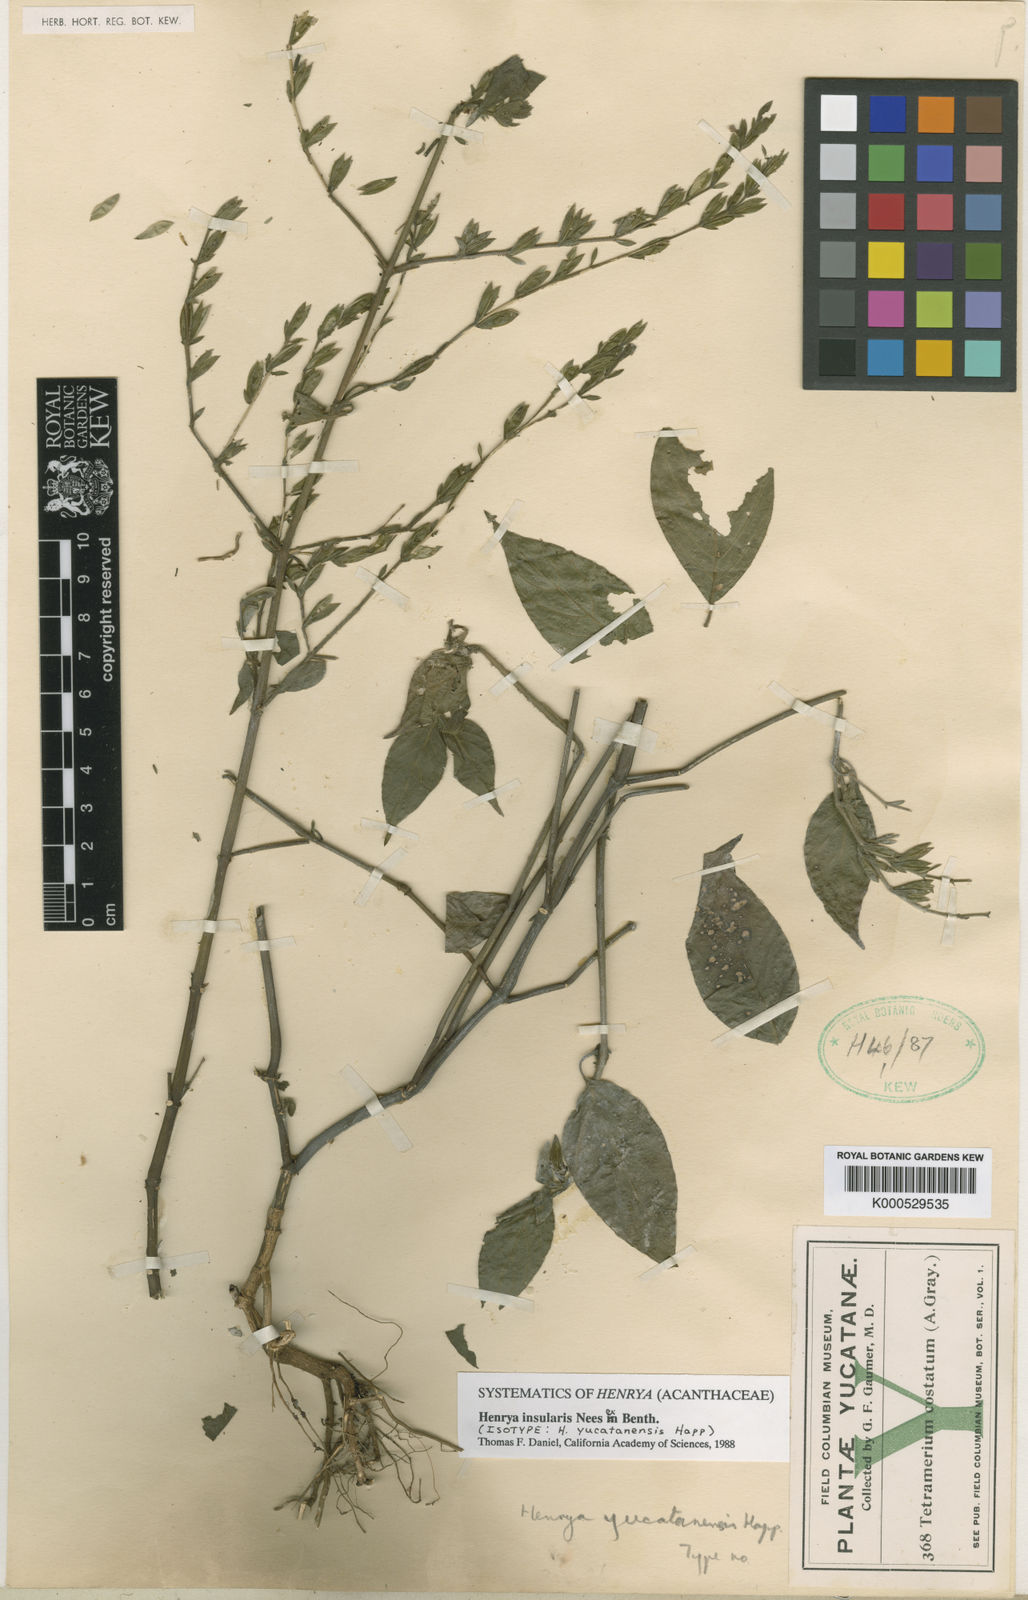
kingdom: Plantae
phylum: Tracheophyta
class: Magnoliopsida
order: Lamiales
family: Acanthaceae
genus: Henrya
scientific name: Henrya
